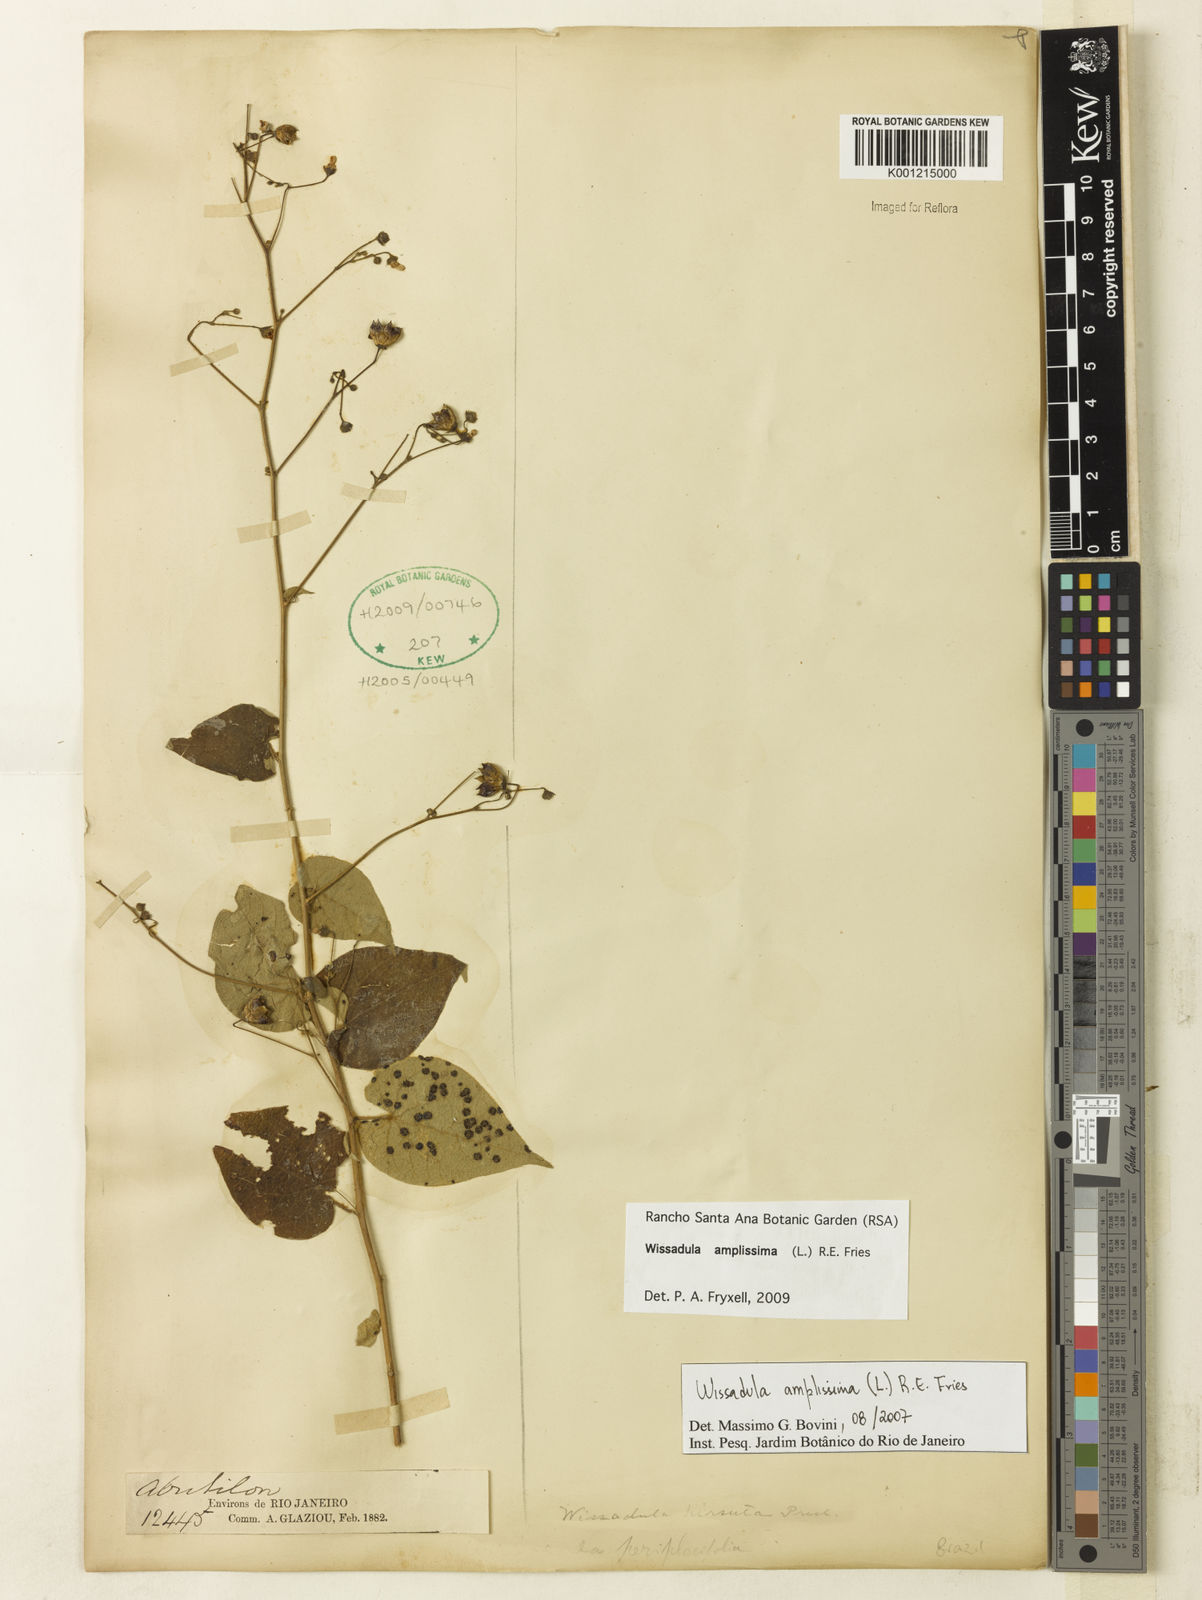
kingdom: Plantae
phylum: Tracheophyta
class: Magnoliopsida
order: Malvales
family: Malvaceae
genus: Wissadula
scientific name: Wissadula amplissima
